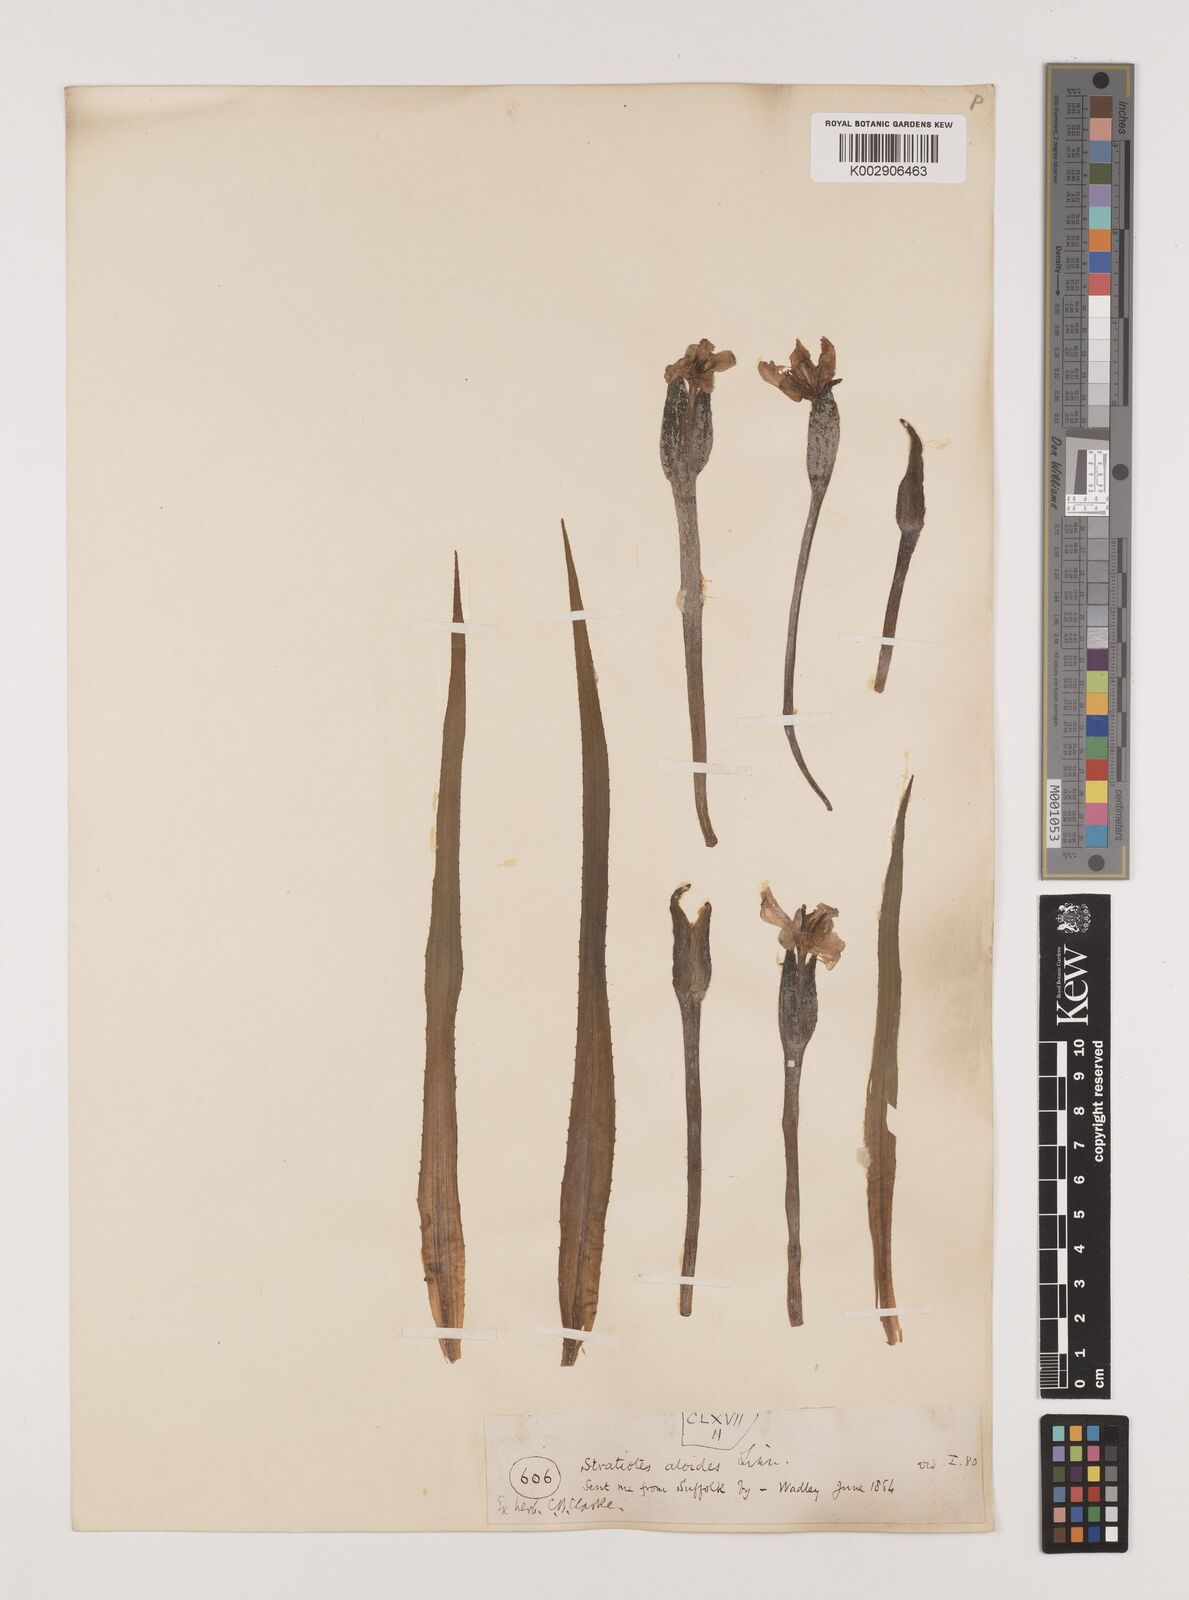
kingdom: Plantae
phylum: Tracheophyta
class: Liliopsida
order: Alismatales
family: Hydrocharitaceae
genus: Stratiotes
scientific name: Stratiotes aloides
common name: Water-soldier
